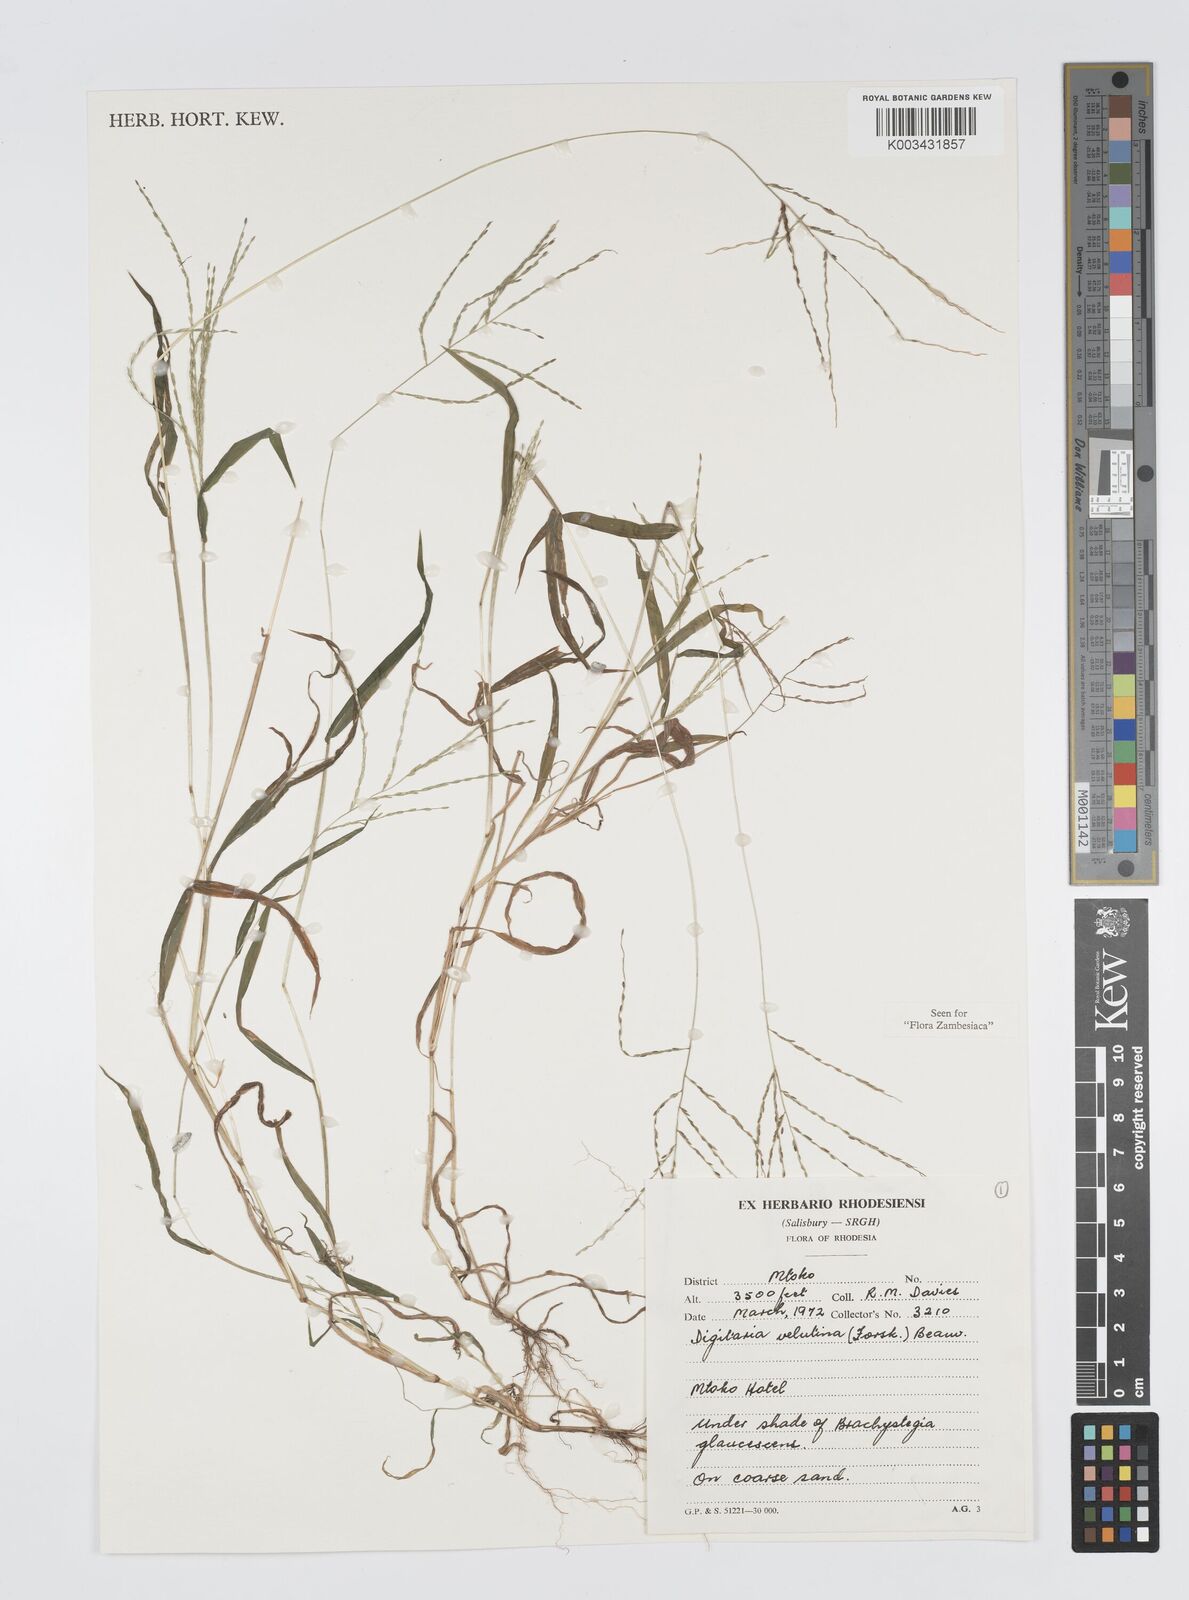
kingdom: Plantae
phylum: Tracheophyta
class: Liliopsida
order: Poales
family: Poaceae
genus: Digitaria
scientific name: Digitaria velutina
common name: Long-plume finger grass
